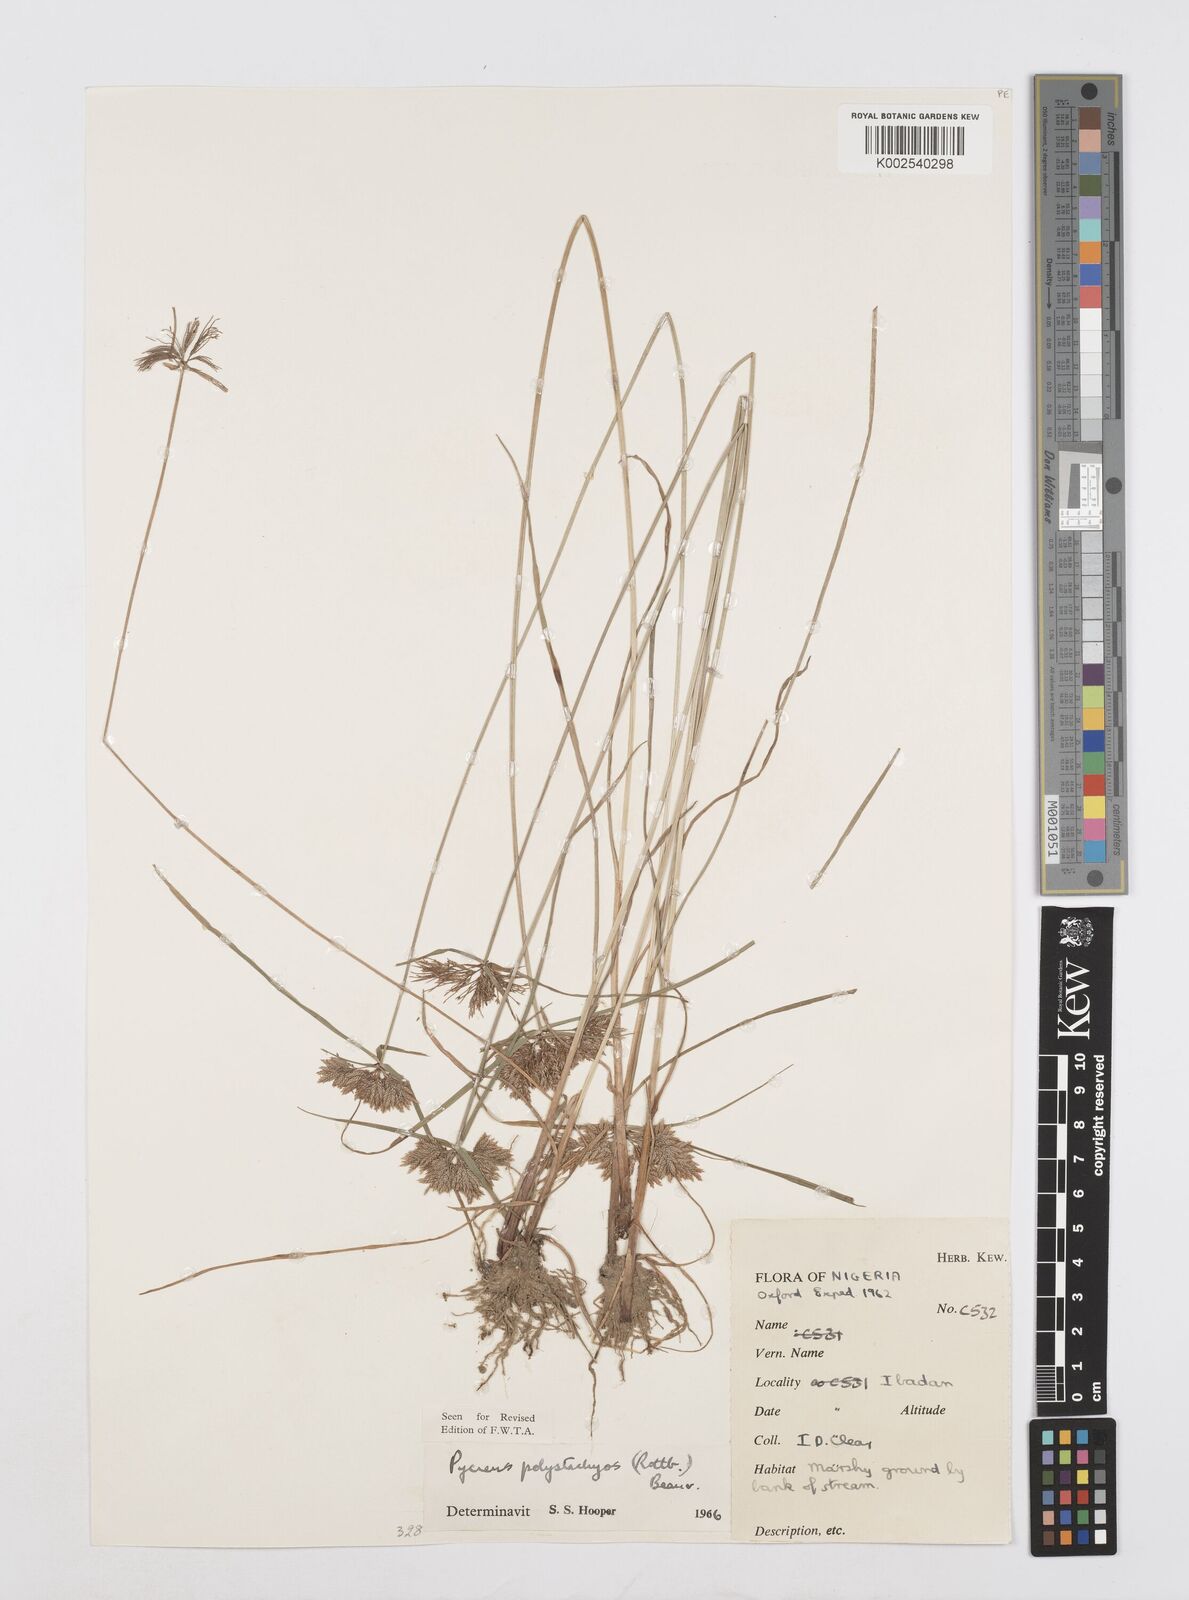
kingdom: Plantae
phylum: Tracheophyta
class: Liliopsida
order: Poales
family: Cyperaceae
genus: Cyperus
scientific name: Cyperus polystachyos
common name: Bunchy flat sedge
